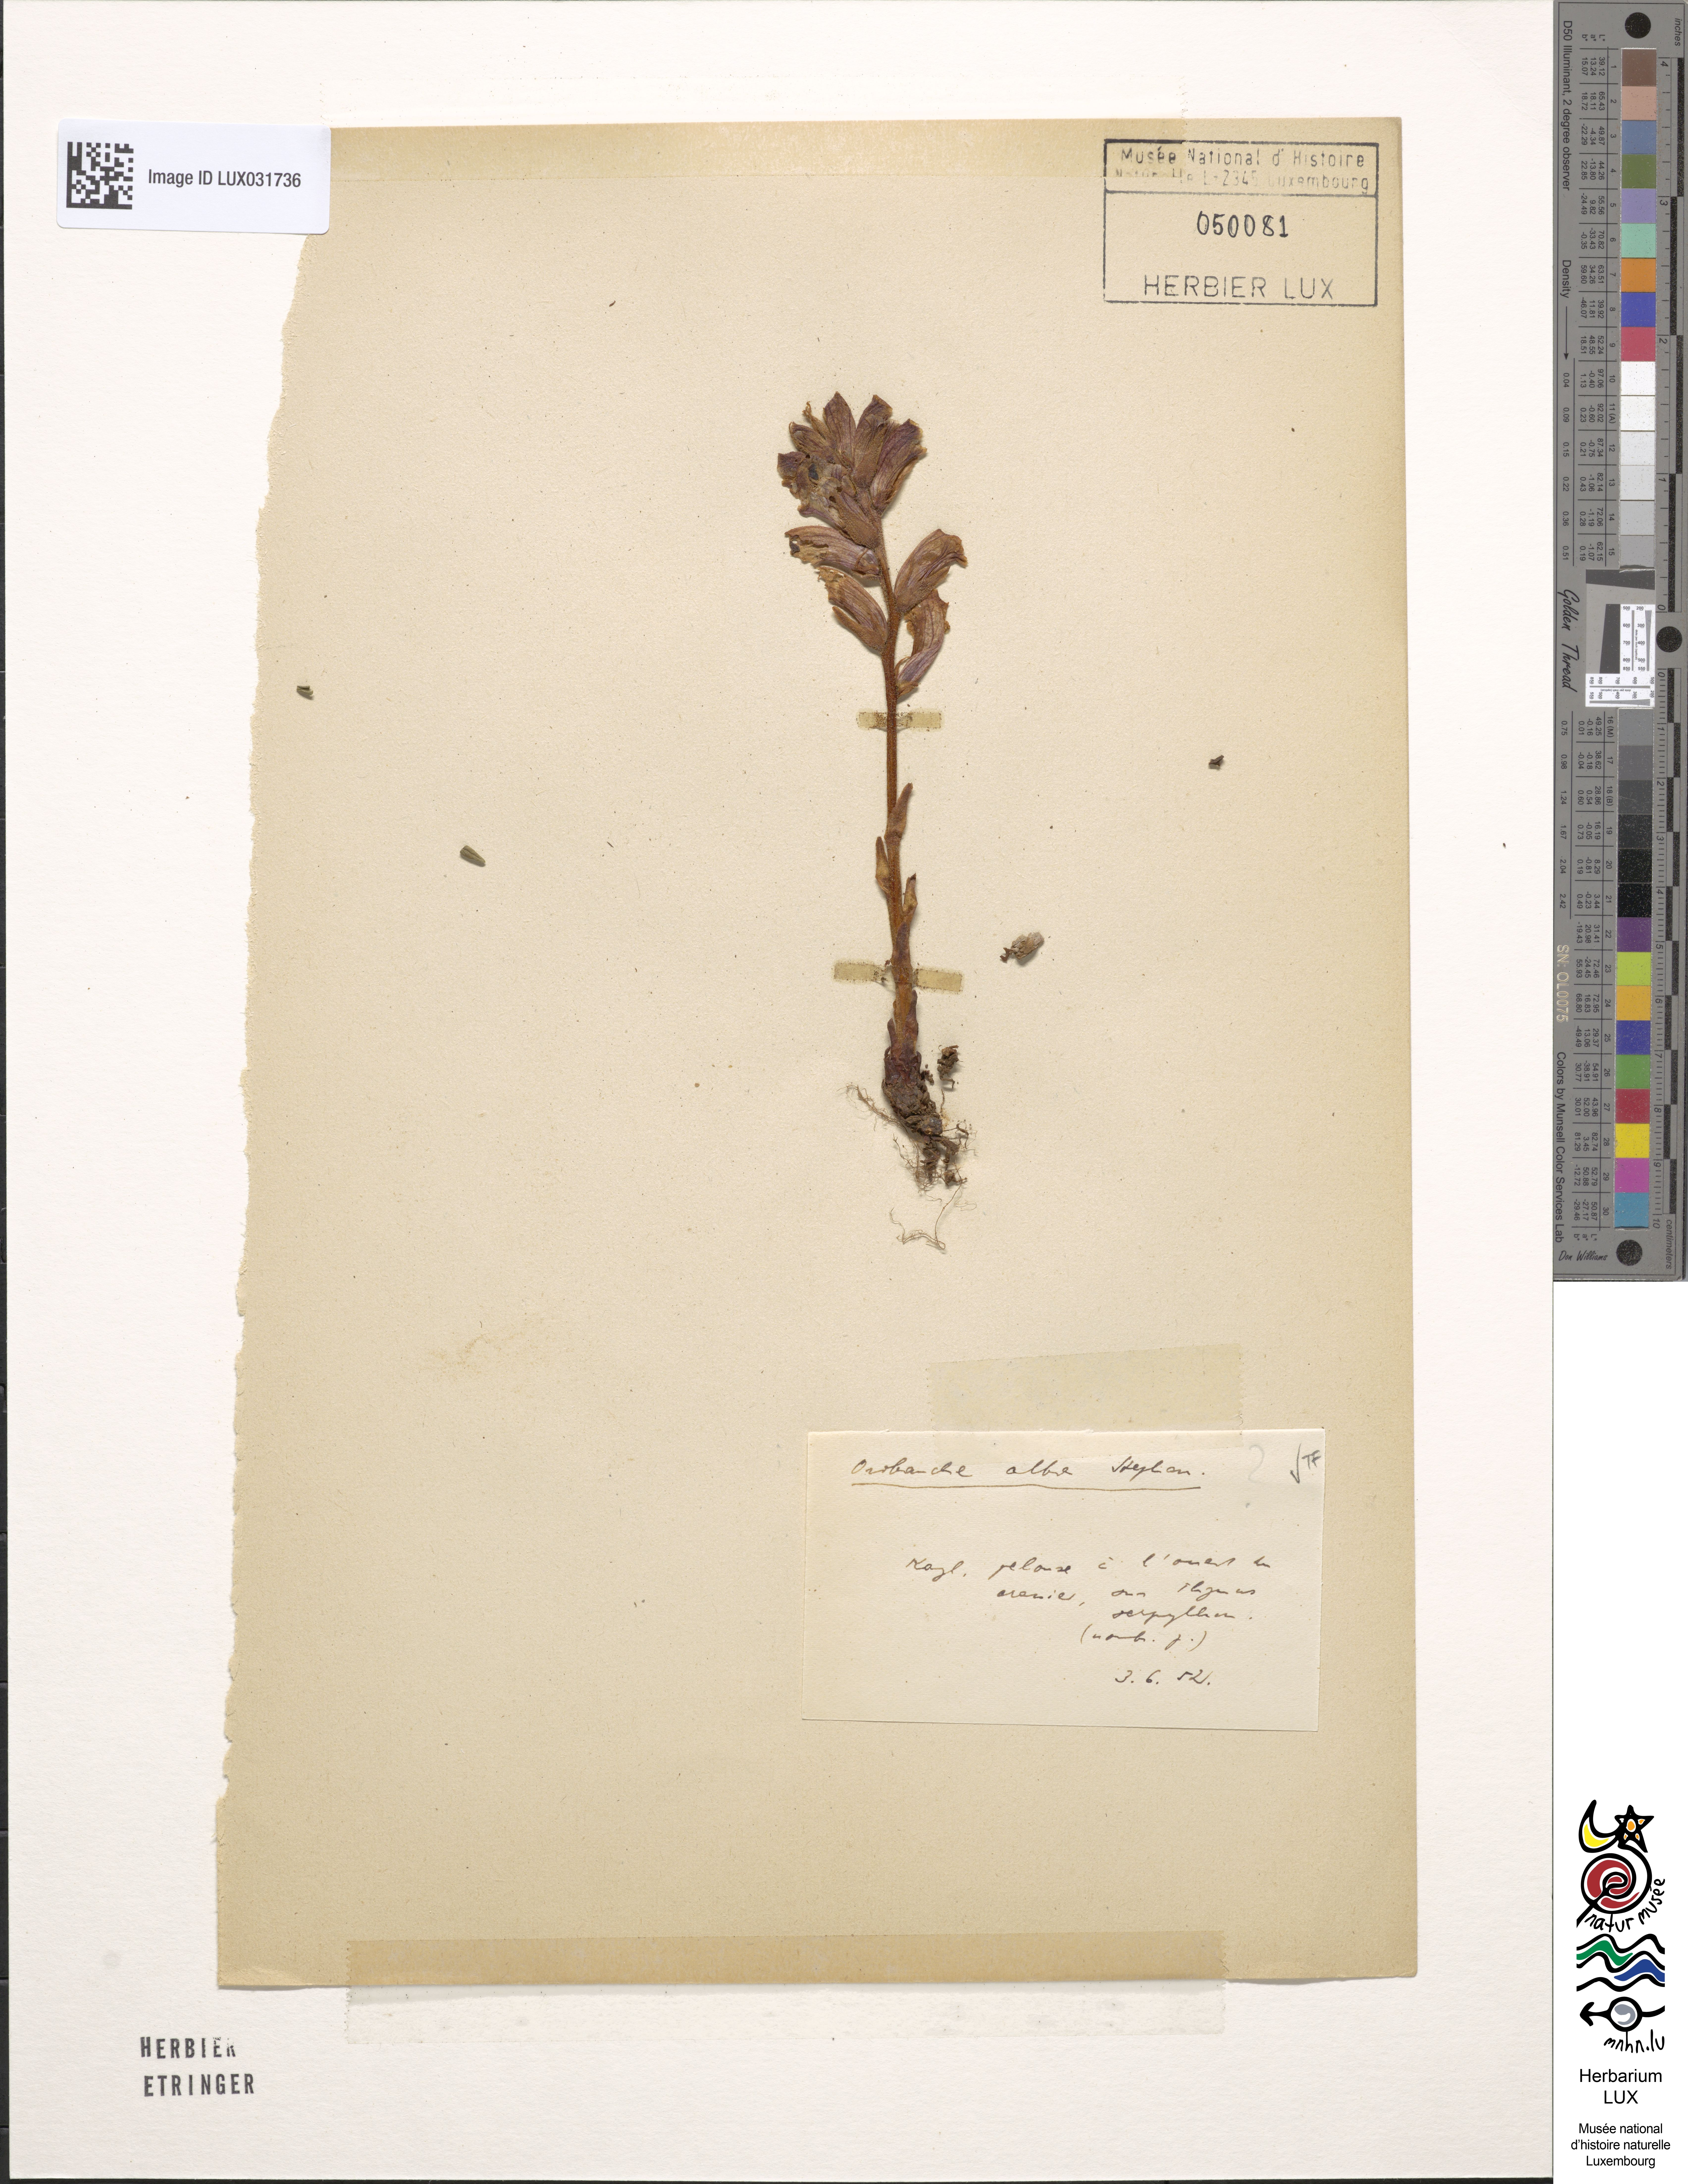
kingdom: Plantae
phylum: Tracheophyta
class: Magnoliopsida
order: Lamiales
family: Orobanchaceae
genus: Orobanche
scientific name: Orobanche alba
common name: Thyme broomrape
